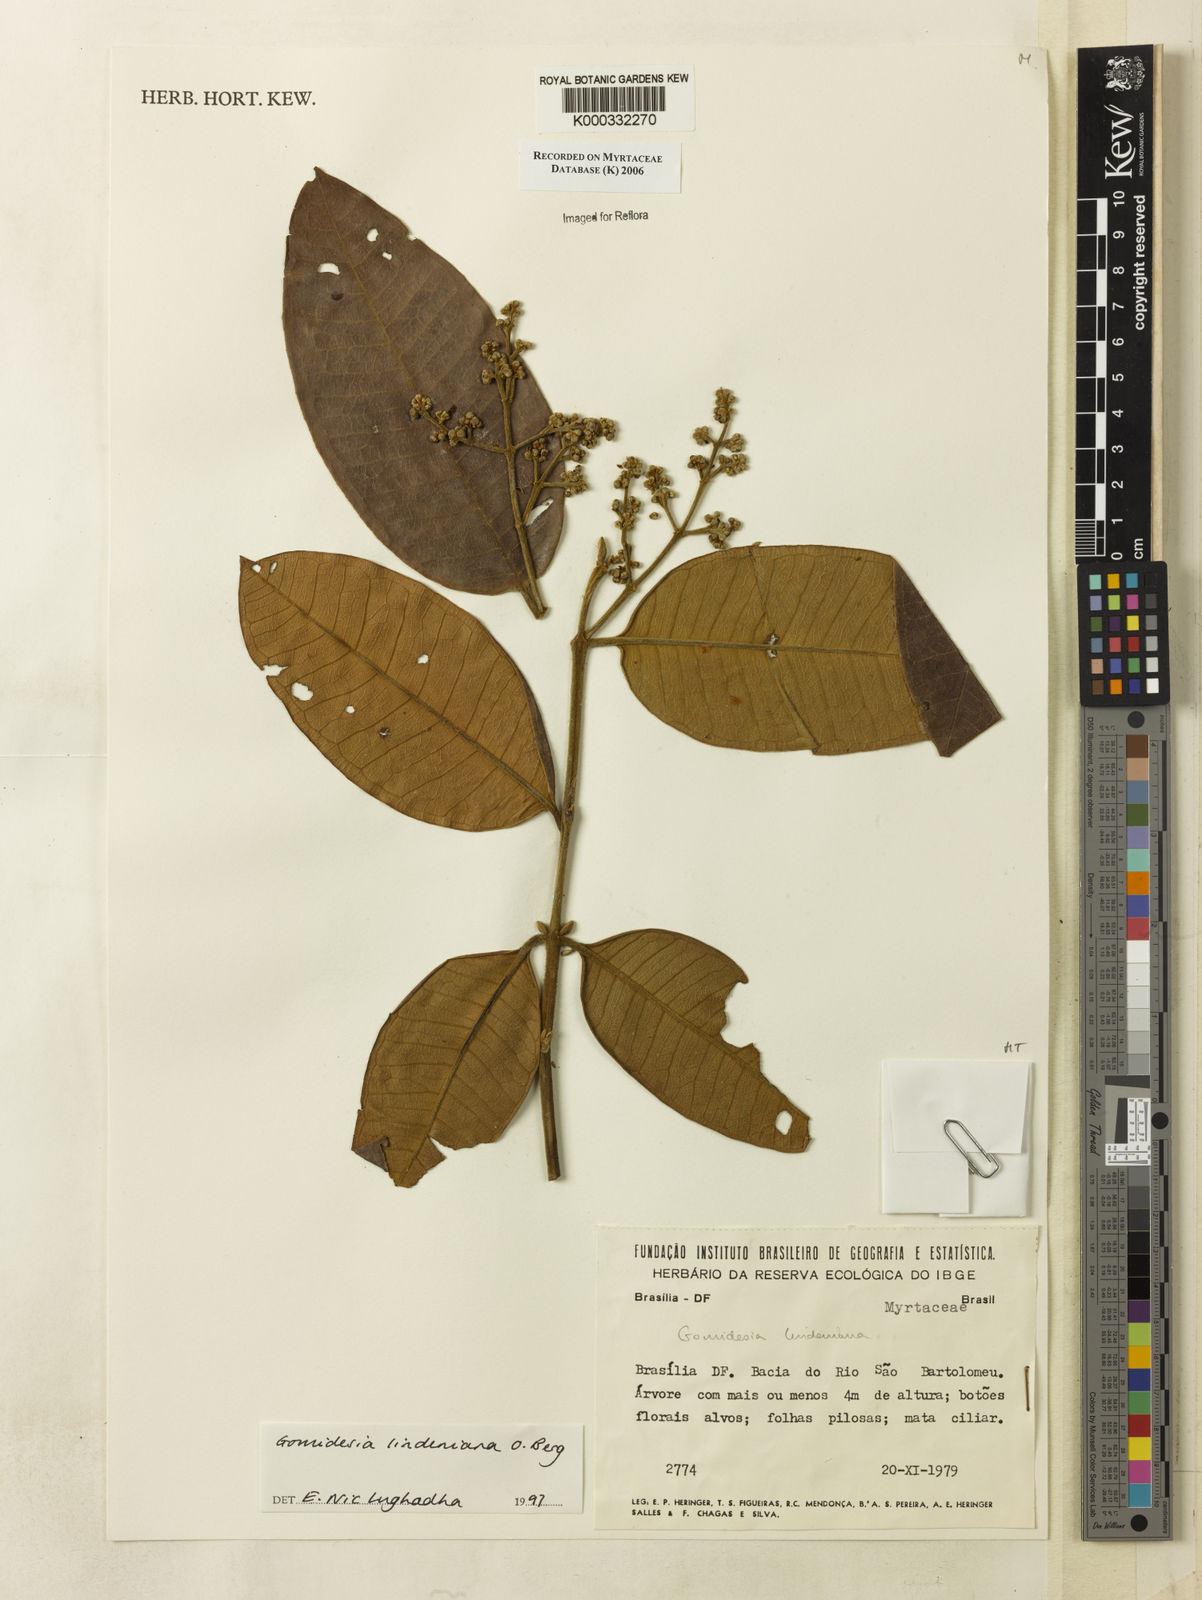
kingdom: Plantae
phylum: Tracheophyta
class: Magnoliopsida
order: Myrtales
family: Myrtaceae
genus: Myrcia
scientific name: Myrcia fenzliana
